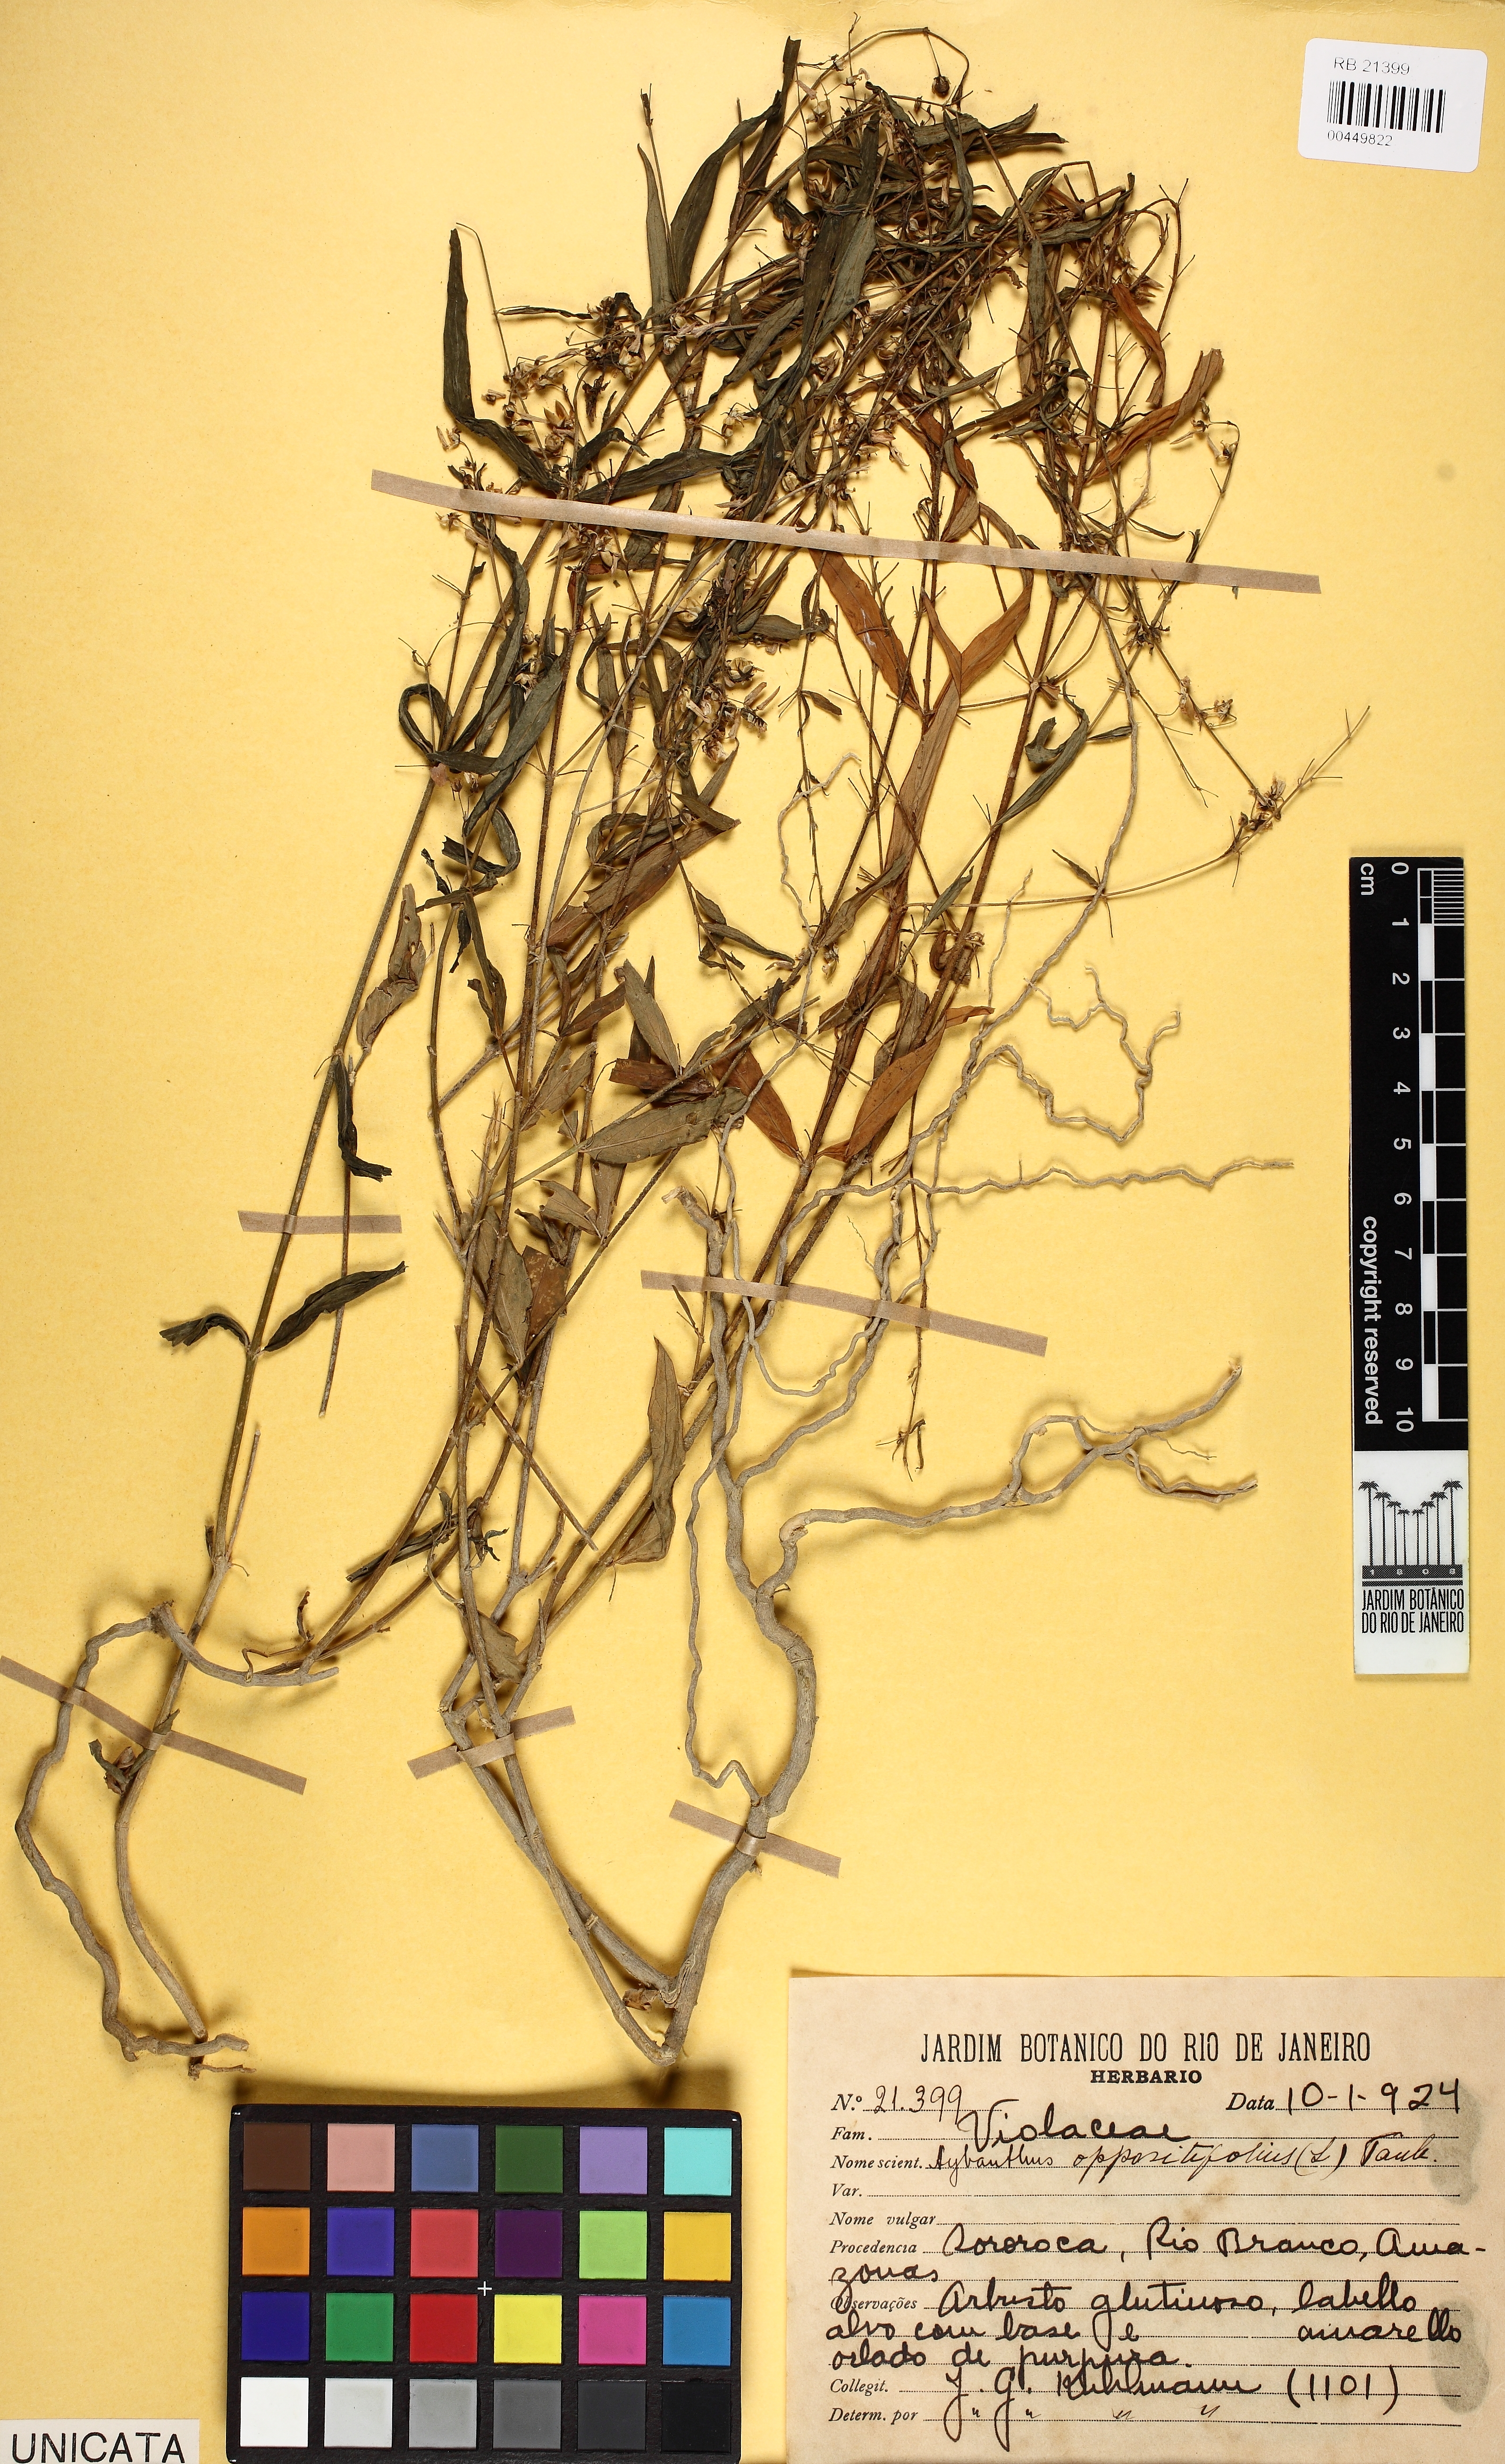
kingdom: Plantae
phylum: Tracheophyta
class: Magnoliopsida
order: Malpighiales
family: Violaceae
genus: Pombalia
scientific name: Pombalia oppositifolia
